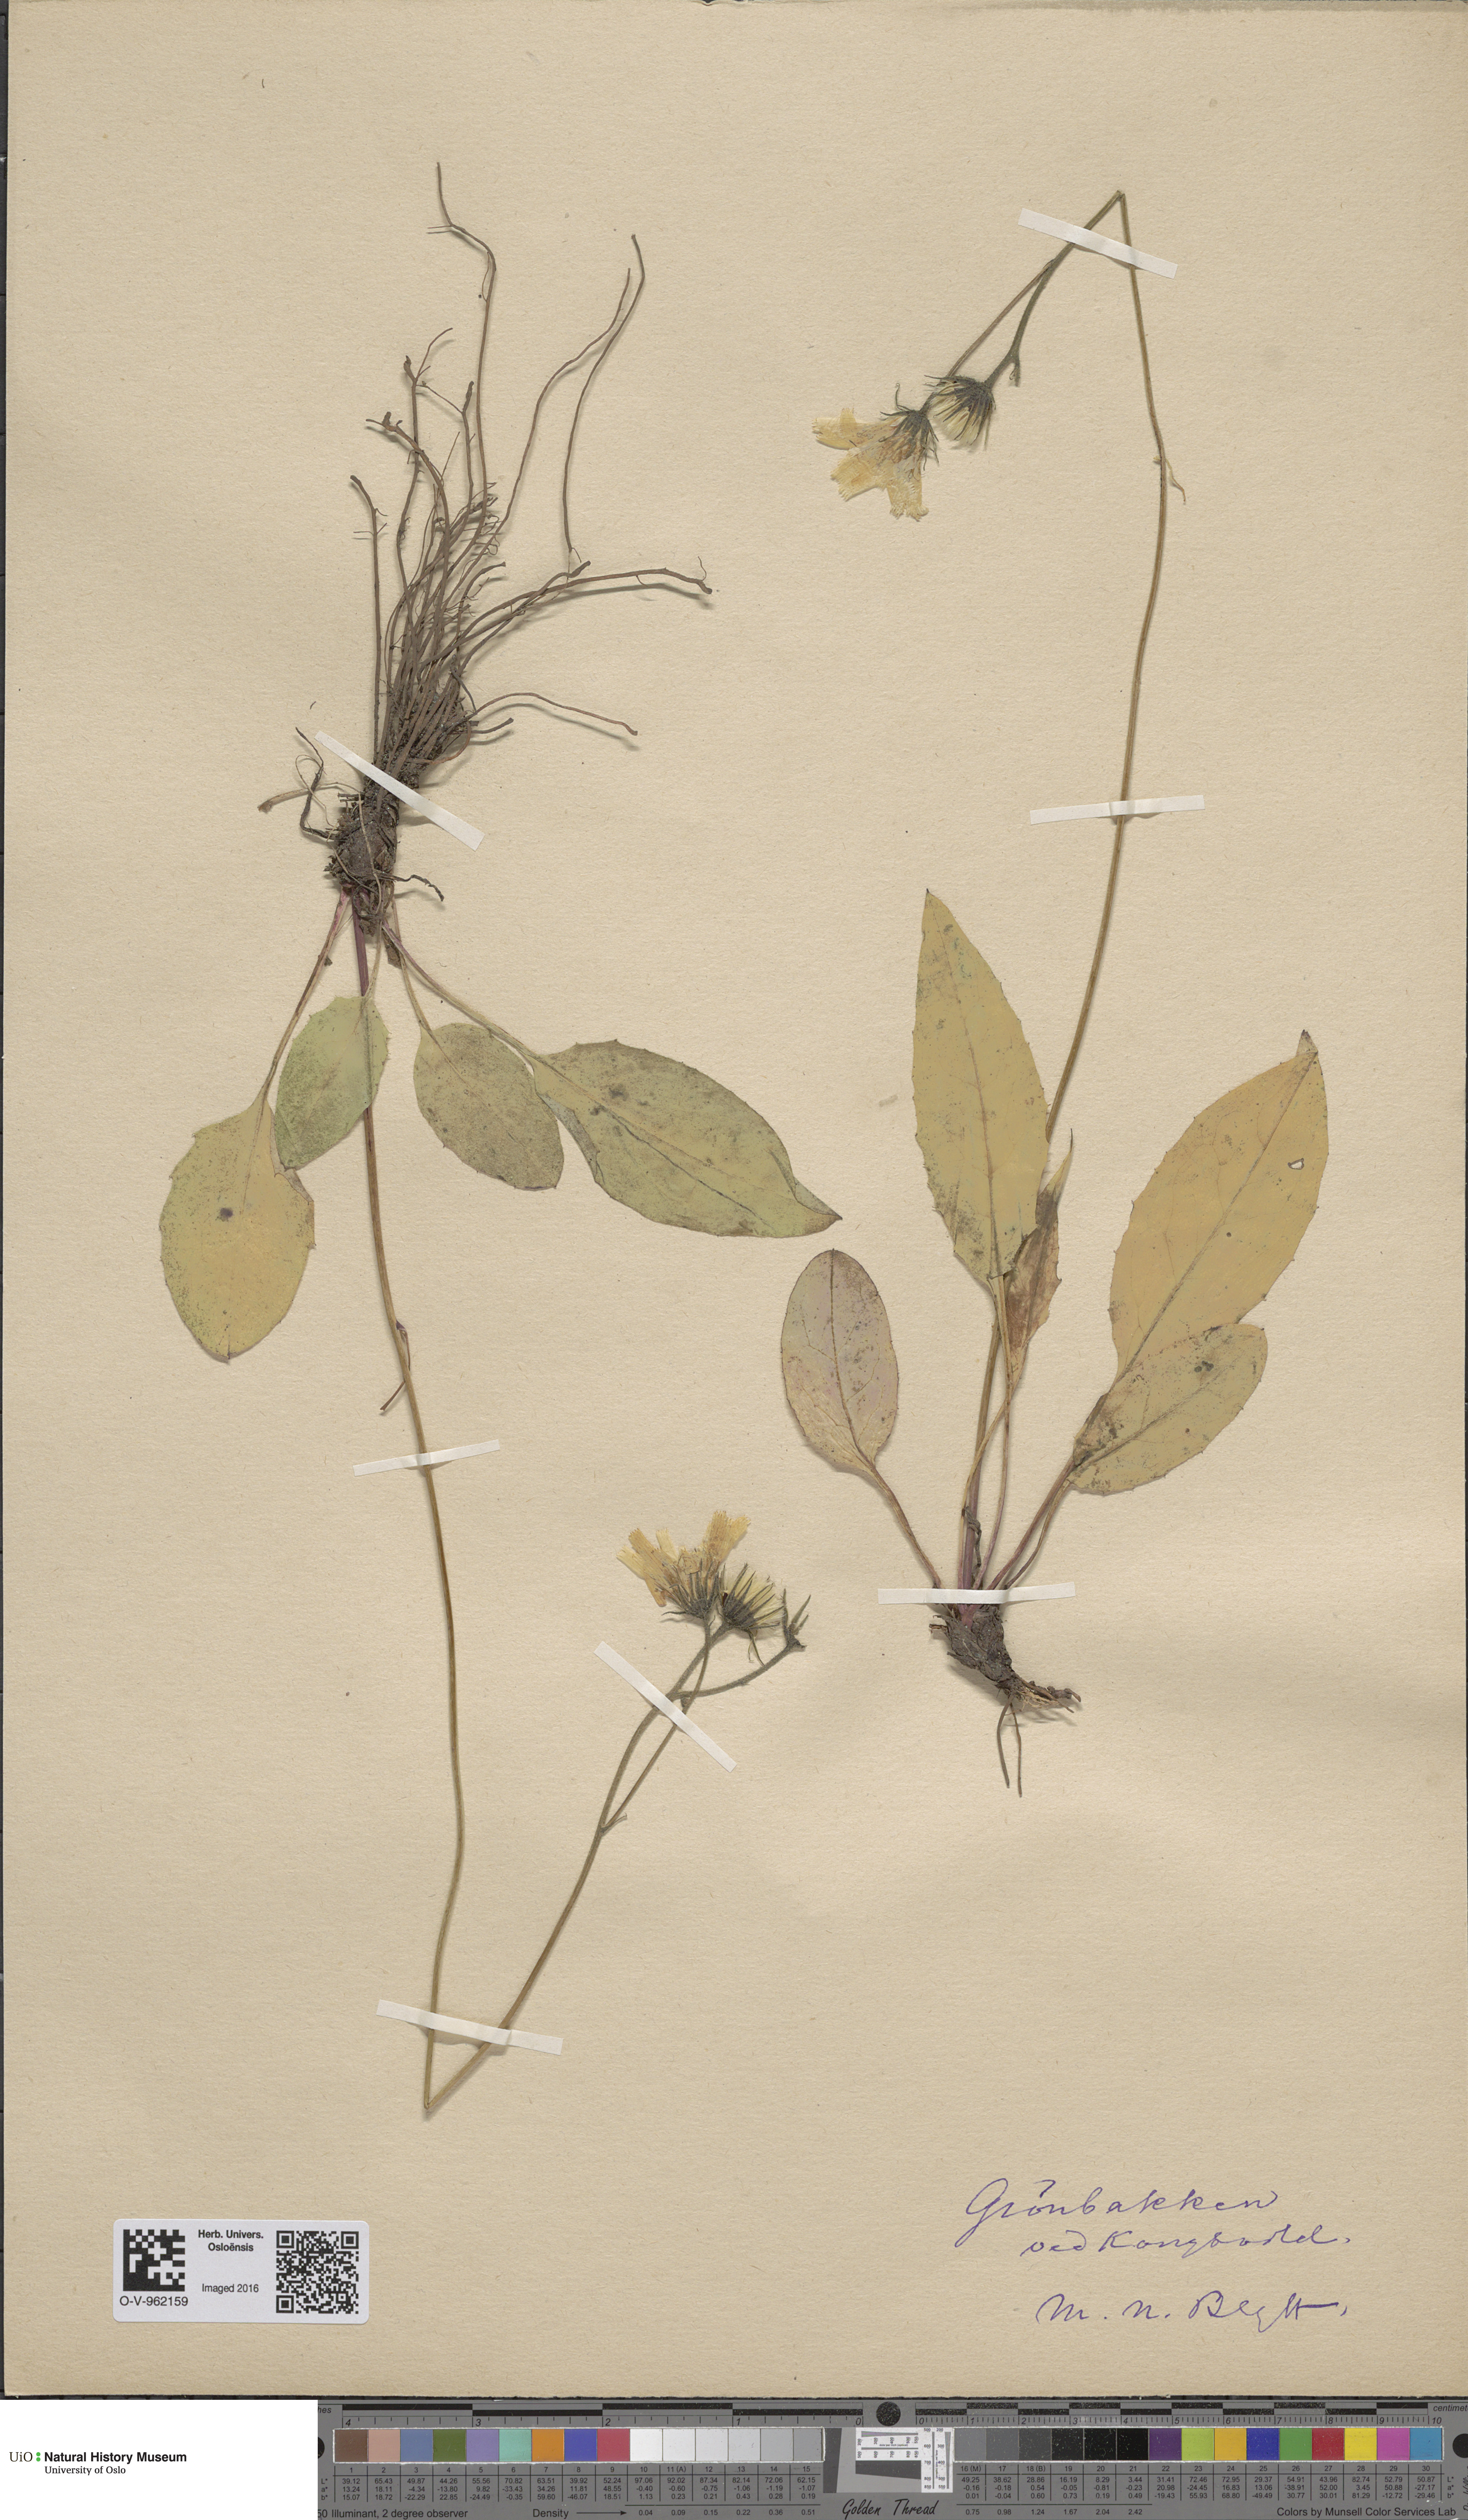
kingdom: Plantae
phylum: Tracheophyta
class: Magnoliopsida
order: Asterales
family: Asteraceae
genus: Hieracium
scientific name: Hieracium
